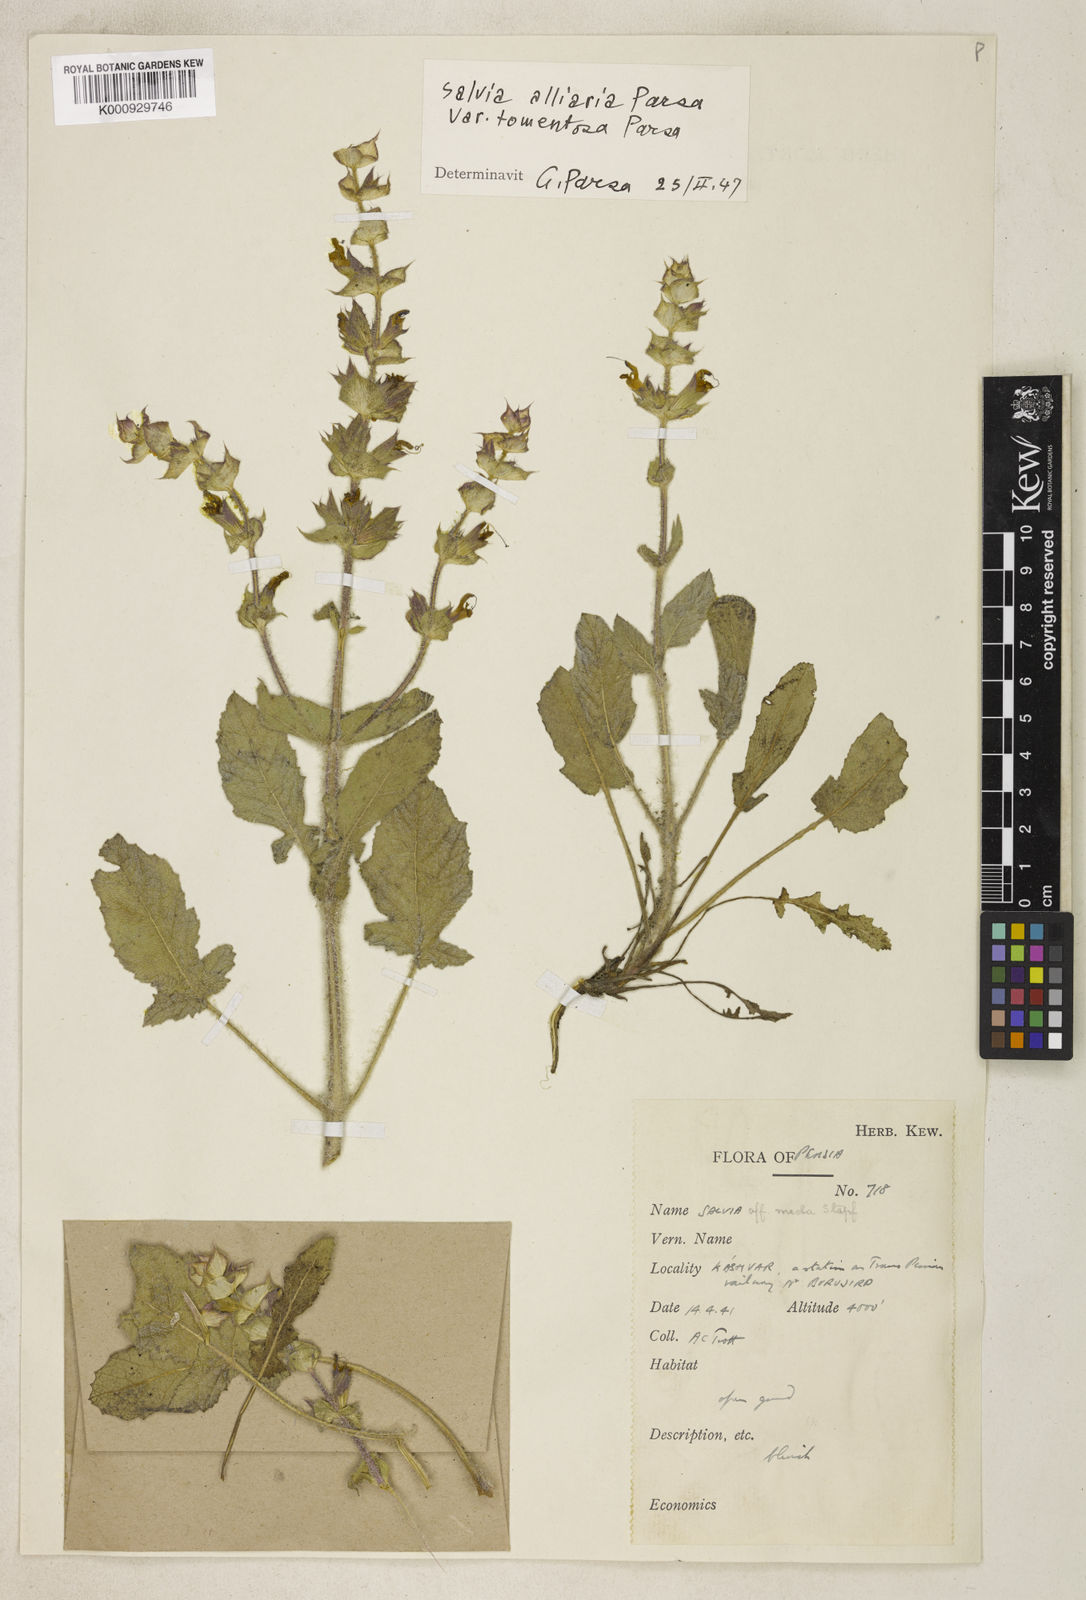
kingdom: Plantae
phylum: Tracheophyta
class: Magnoliopsida
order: Lamiales
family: Lamiaceae
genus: Salvia
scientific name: Salvia palaestina
